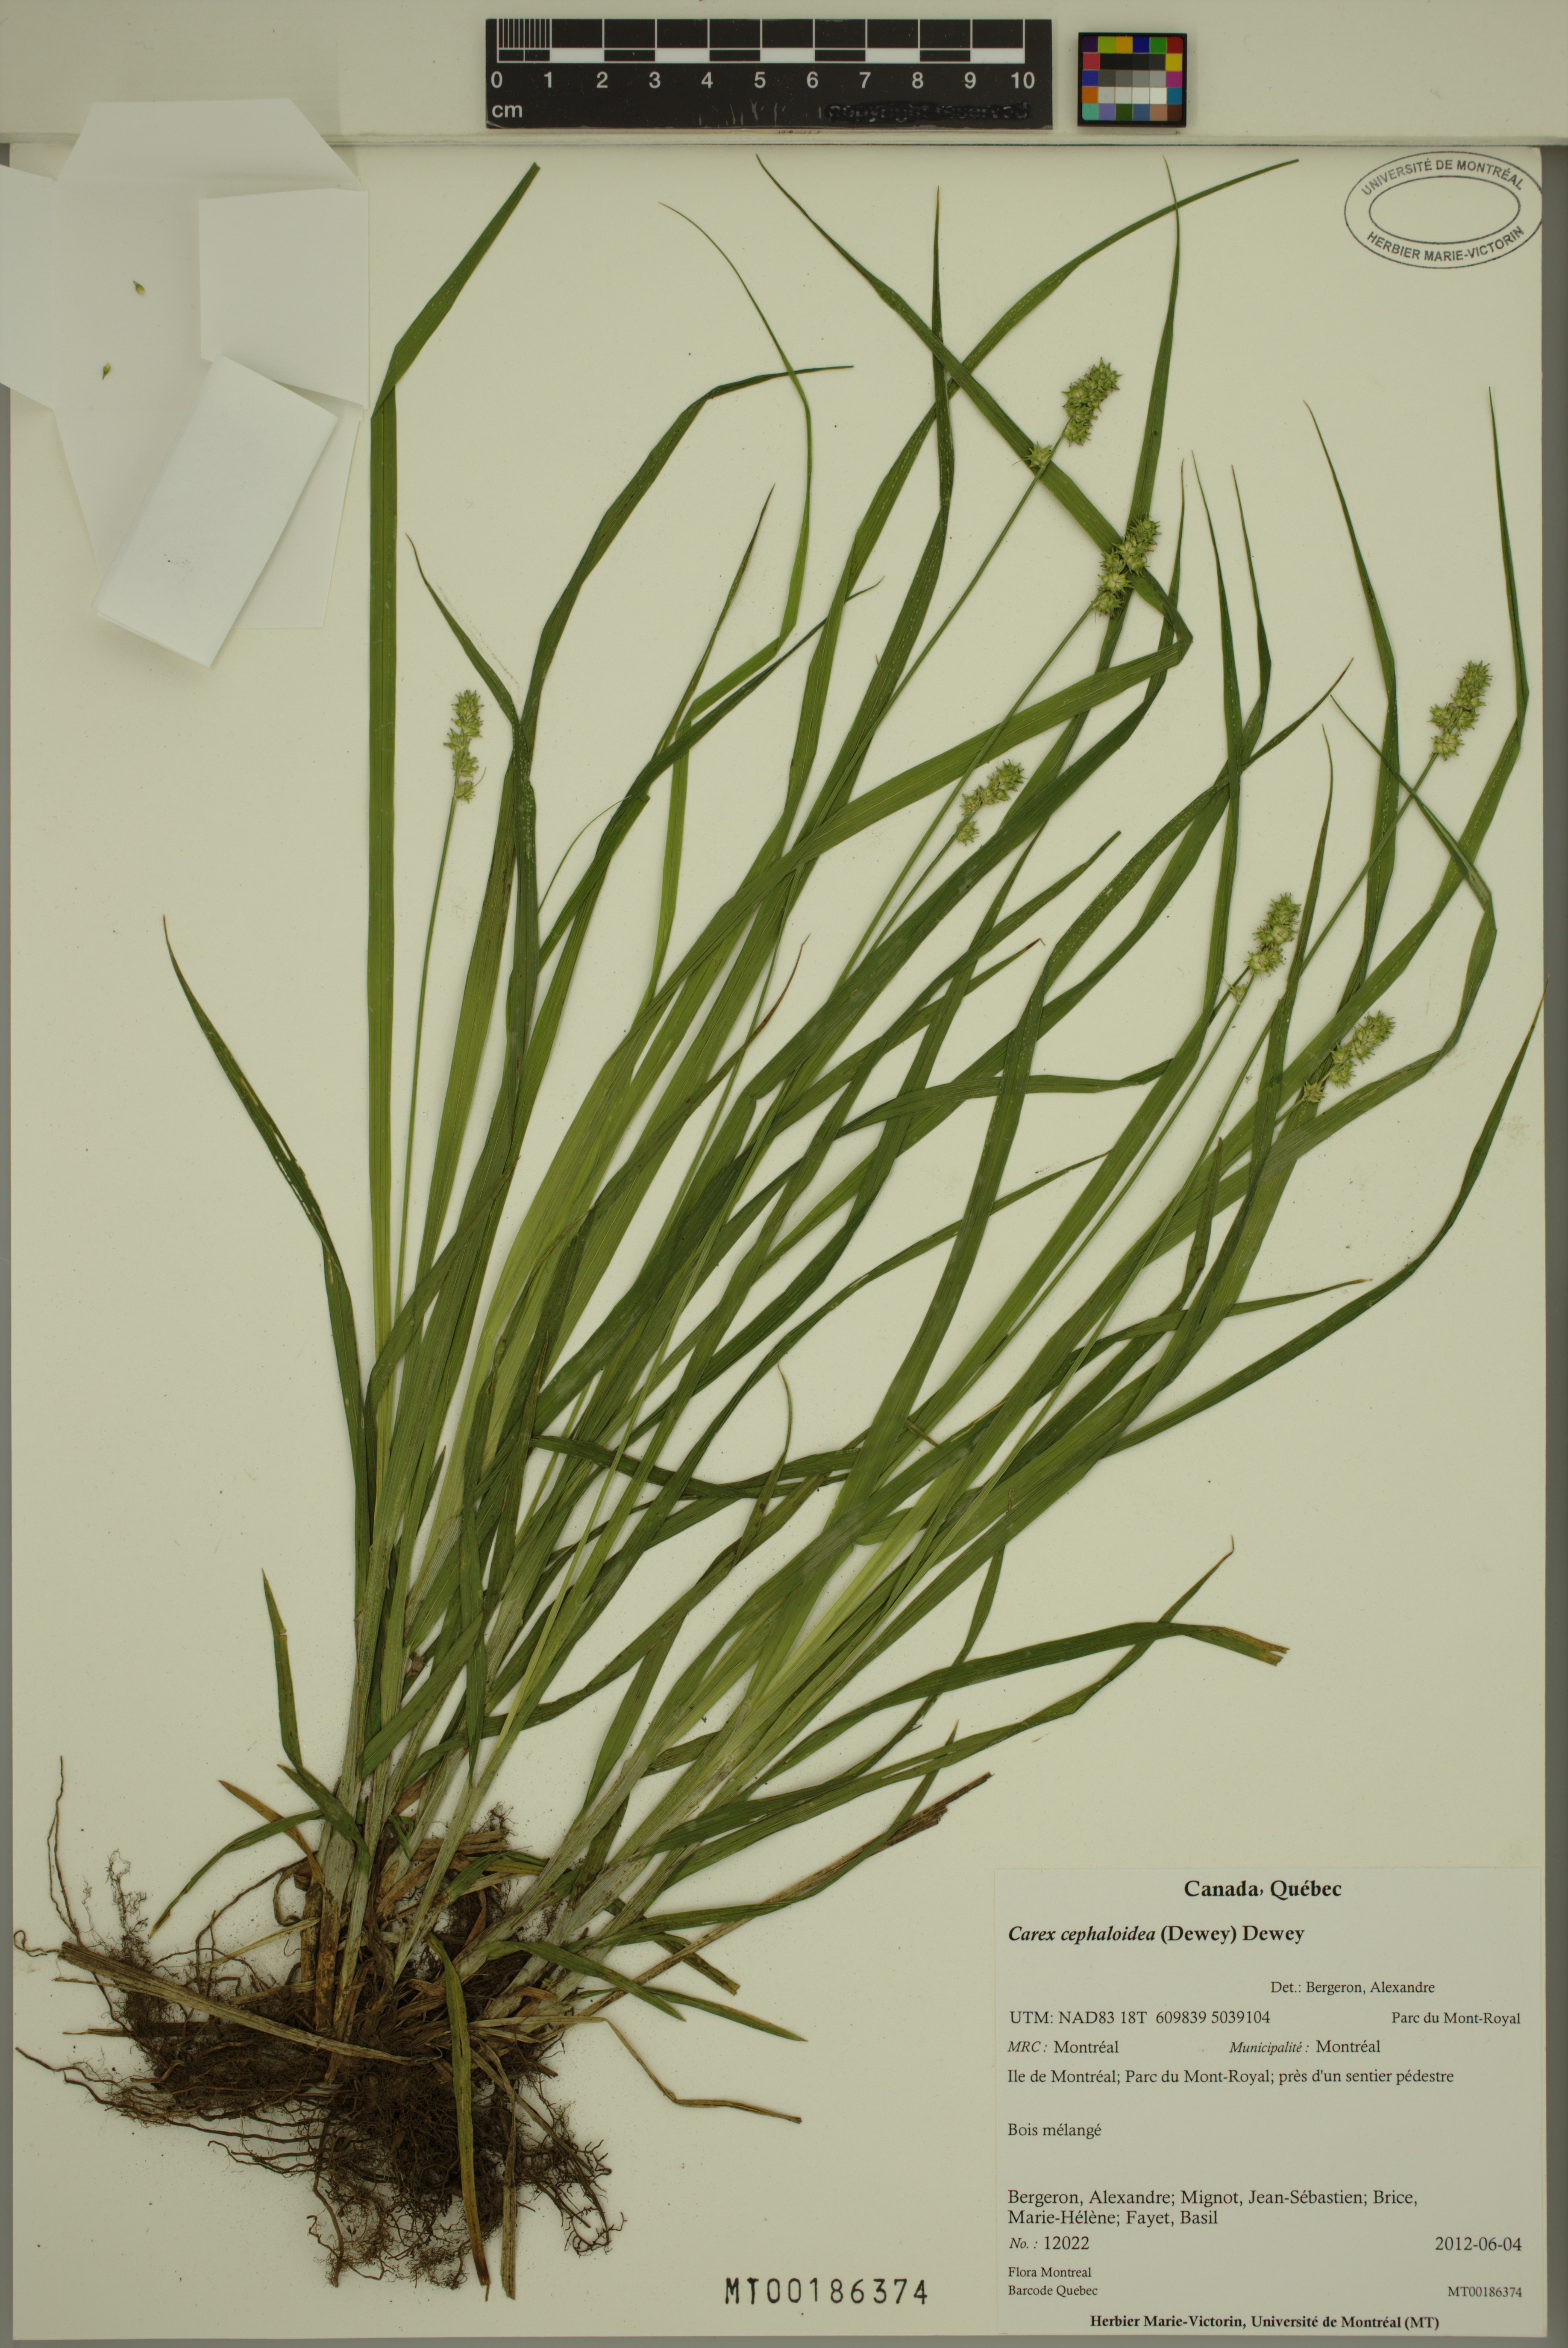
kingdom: Plantae
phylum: Tracheophyta
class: Liliopsida
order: Poales
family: Cyperaceae
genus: Carex
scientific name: Carex cephaloidea
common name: Thin-leaved sedge
